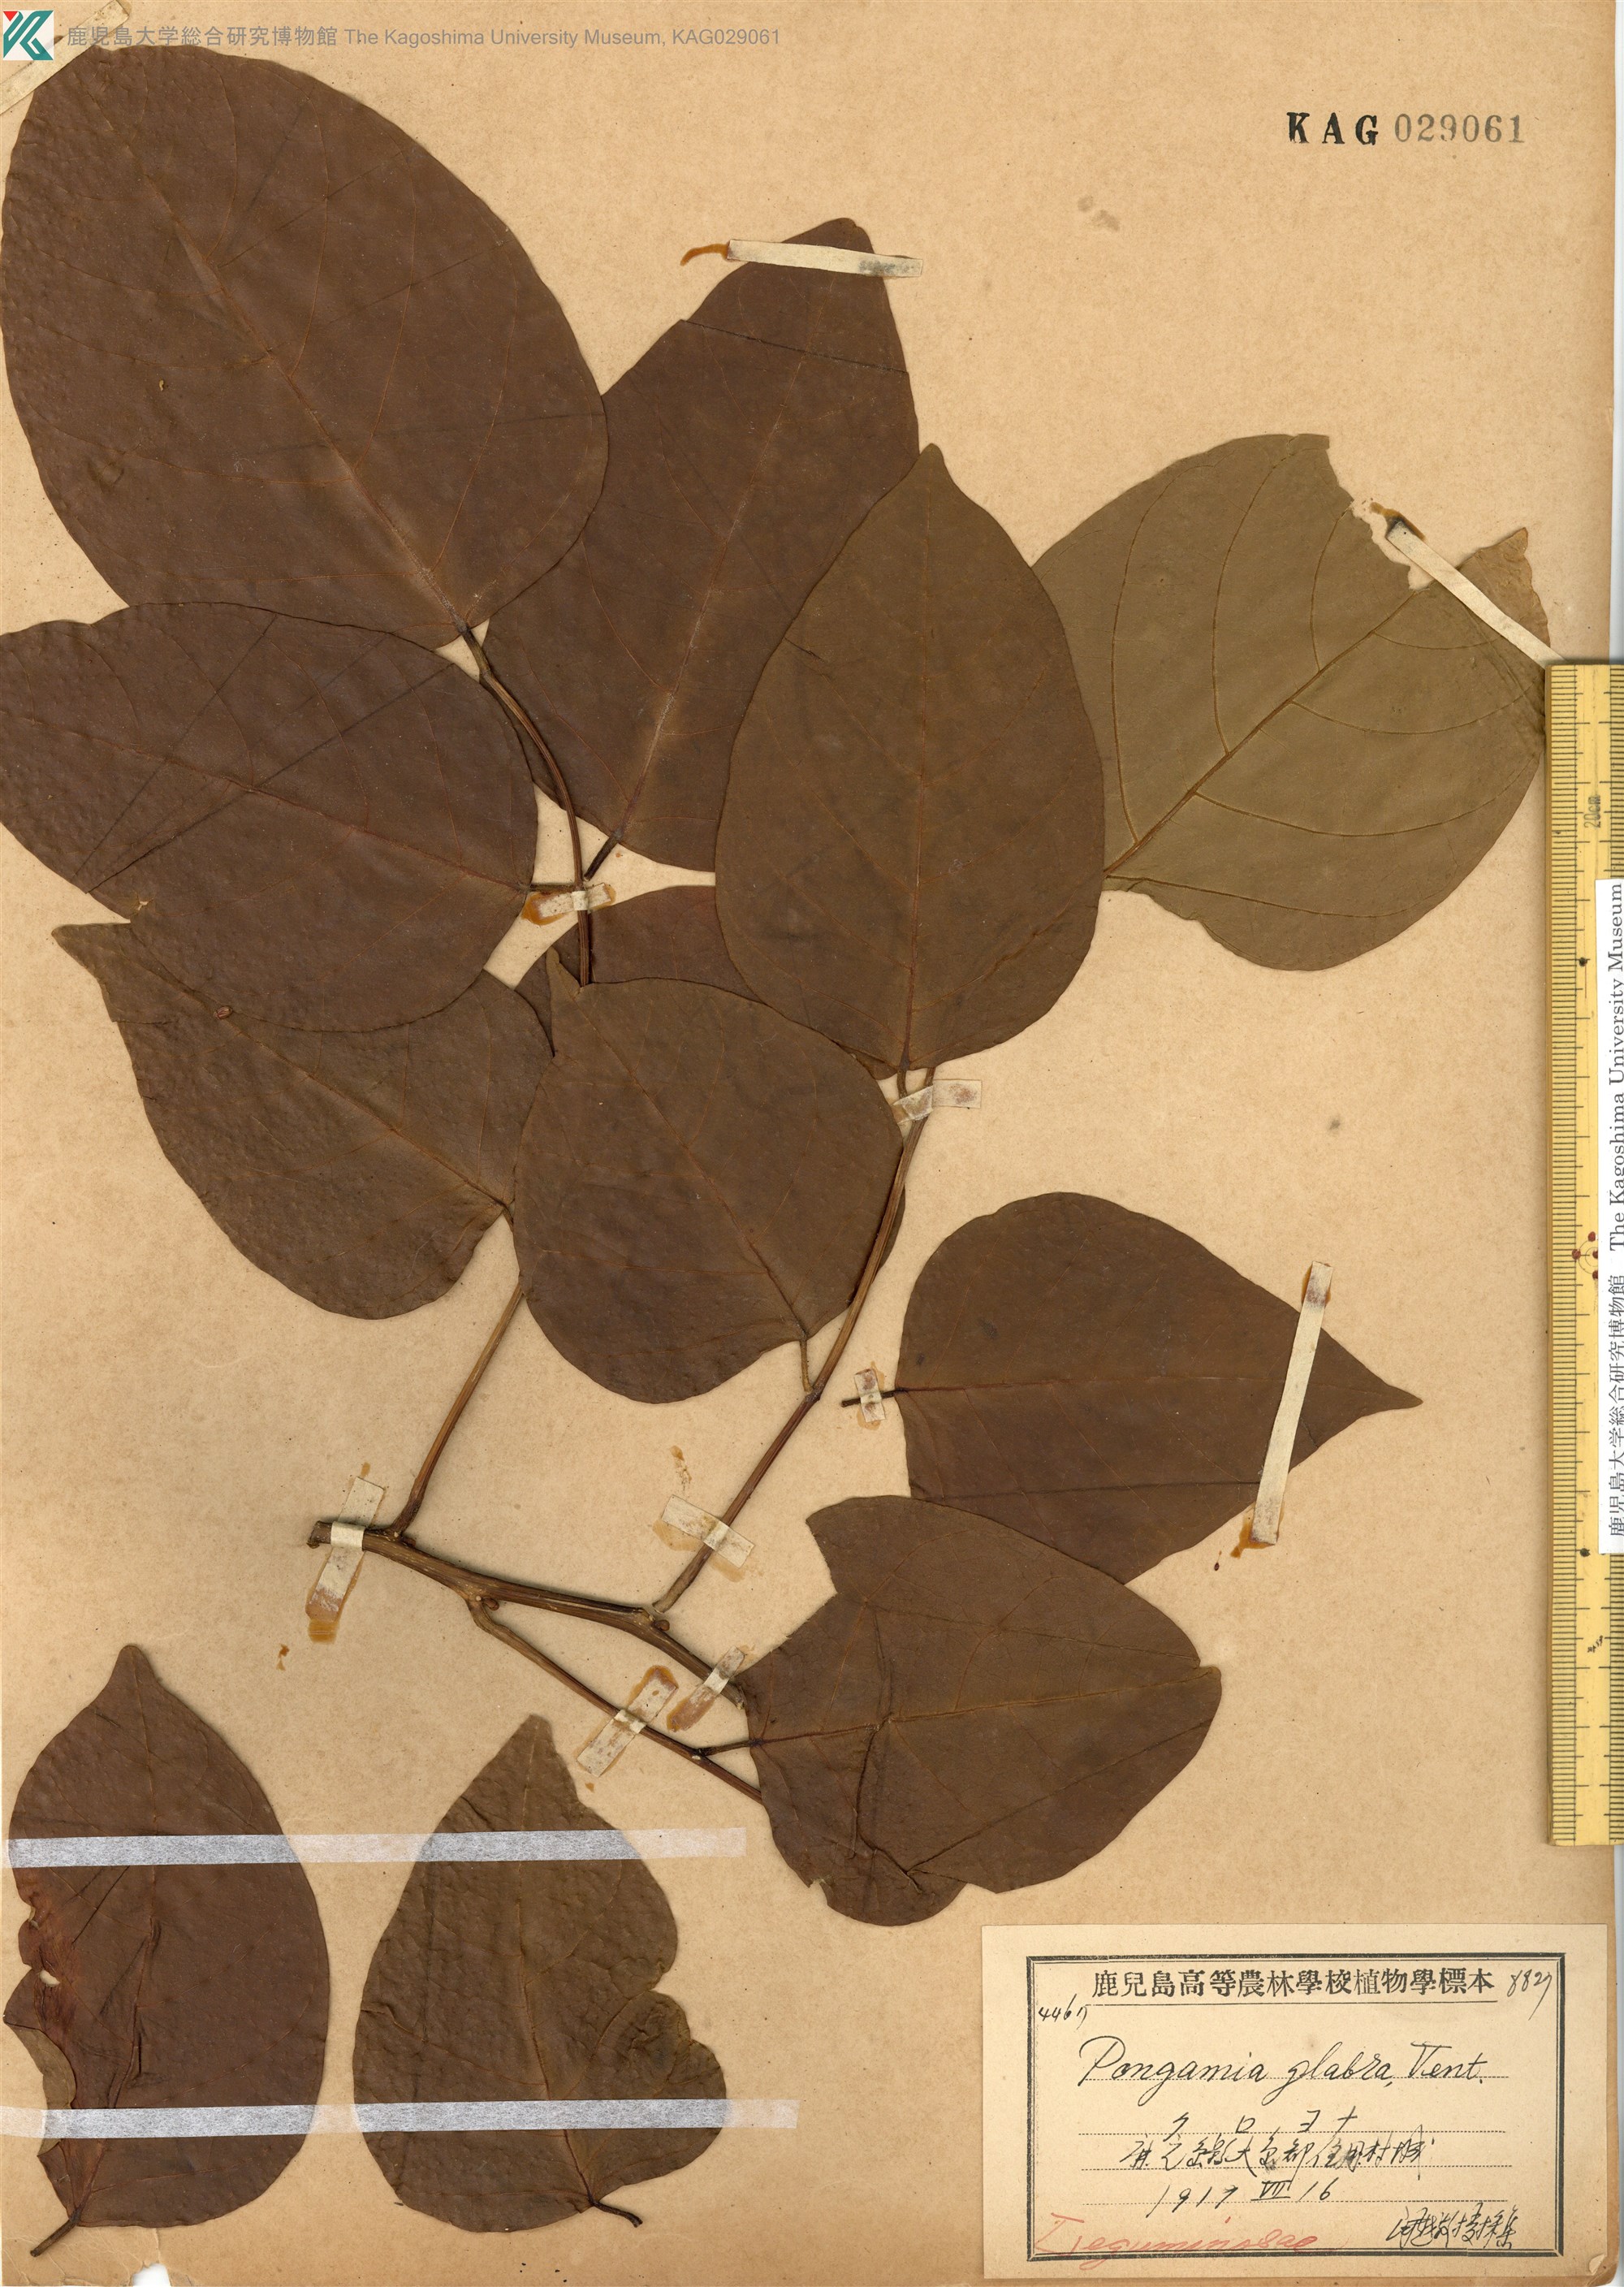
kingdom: Plantae
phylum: Tracheophyta
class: Magnoliopsida
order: Fabales
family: Fabaceae
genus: Pongamia
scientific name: Pongamia pinnata
